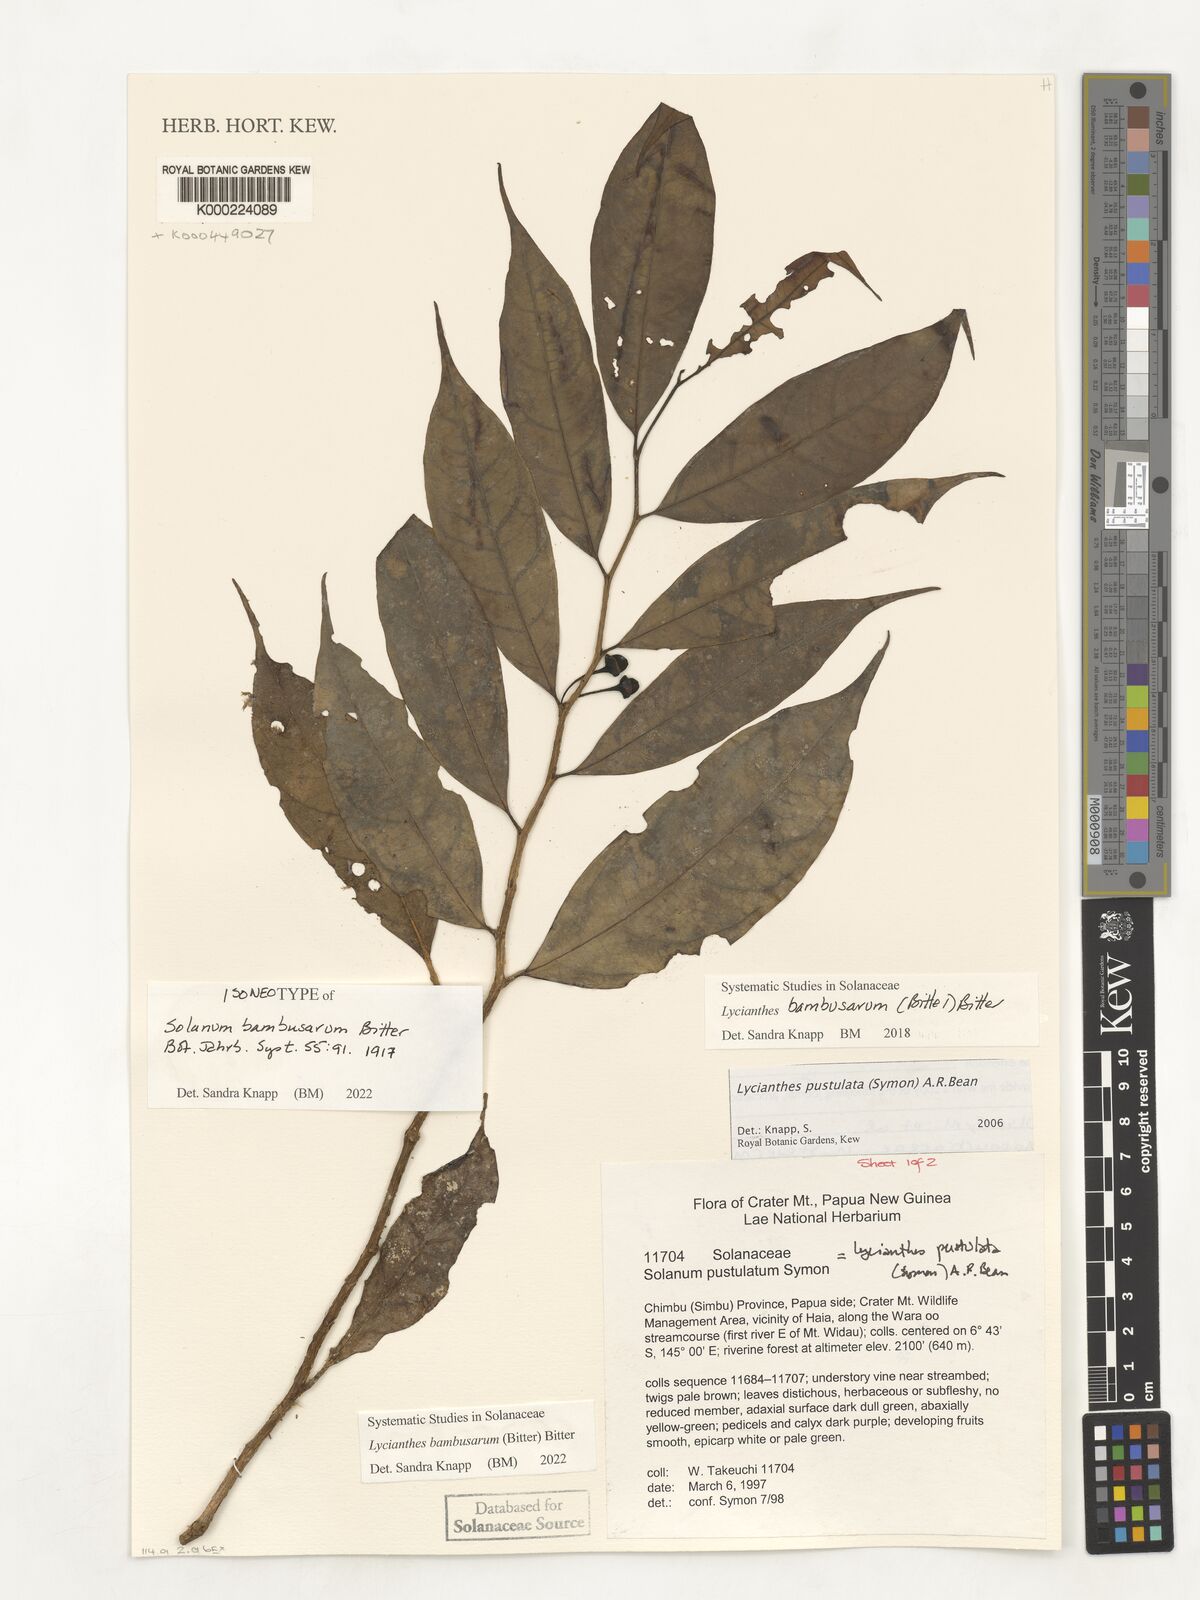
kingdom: Plantae
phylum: Tracheophyta
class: Magnoliopsida
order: Solanales
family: Solanaceae
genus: Lycianthes
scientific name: Lycianthes bambusarum
